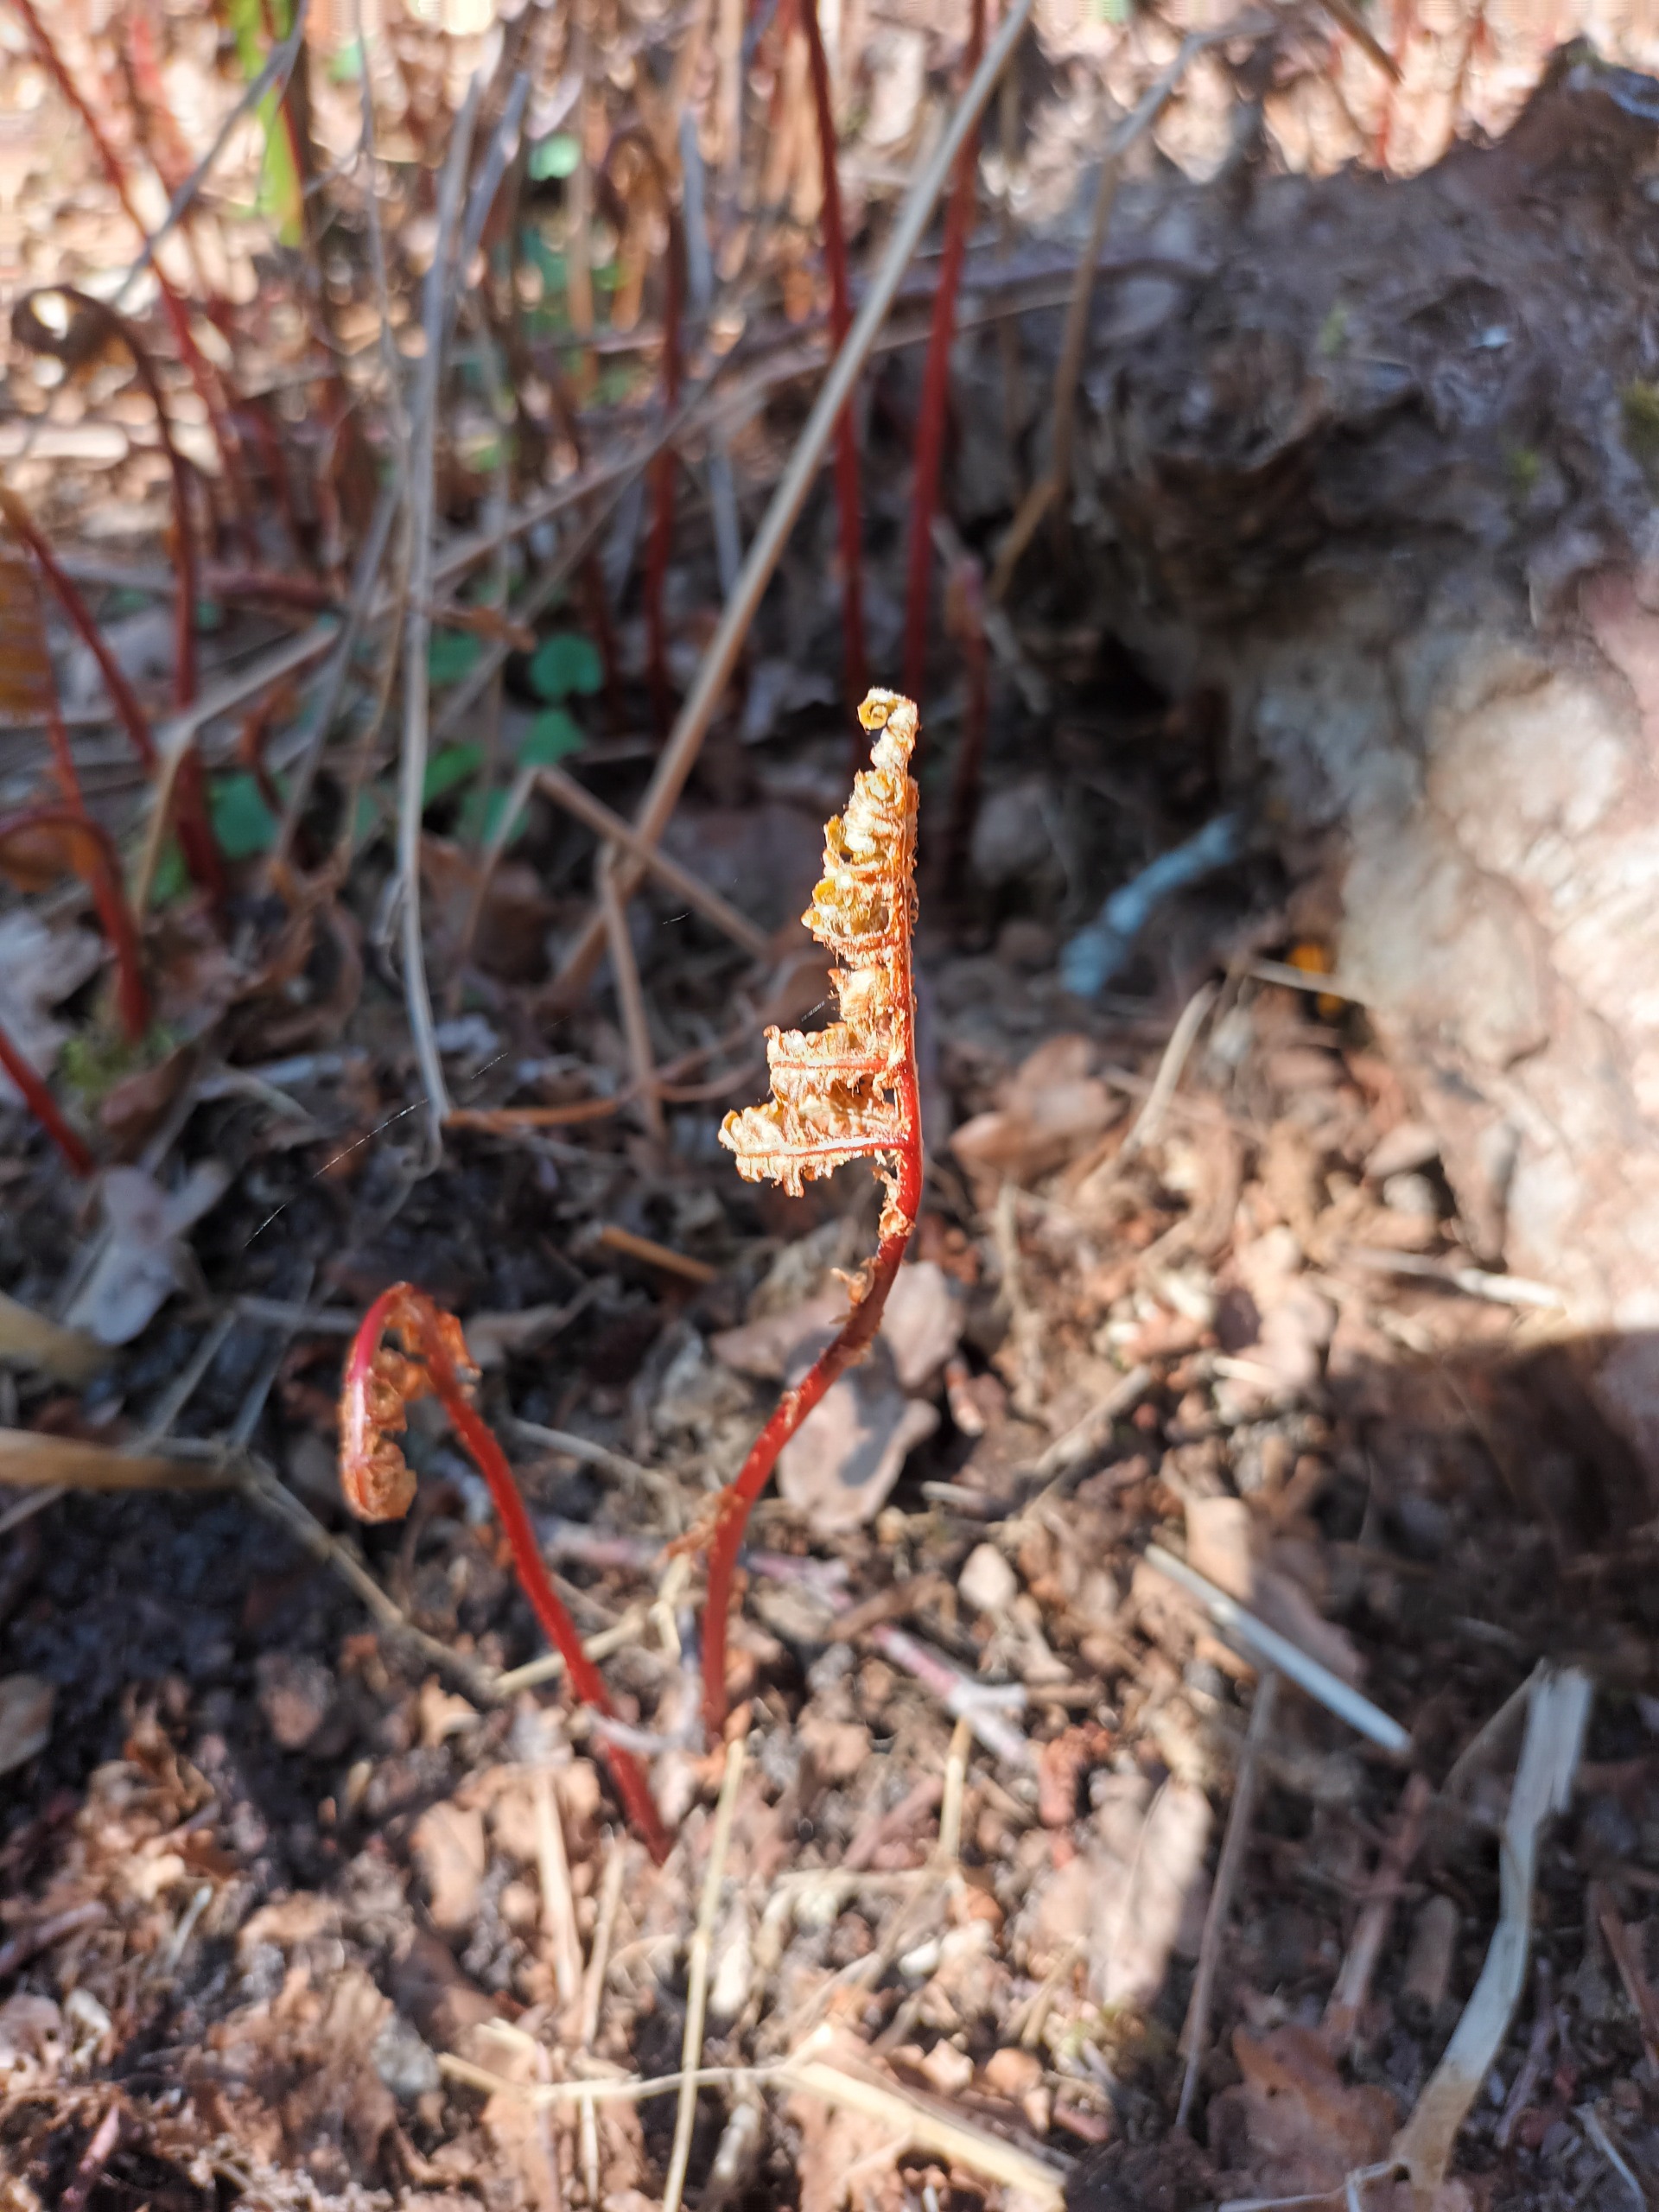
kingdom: Plantae
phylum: Tracheophyta
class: Polypodiopsida
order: Polypodiales
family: Onocleaceae
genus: Onoclea
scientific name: Onoclea sensibilis
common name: Druebregne
